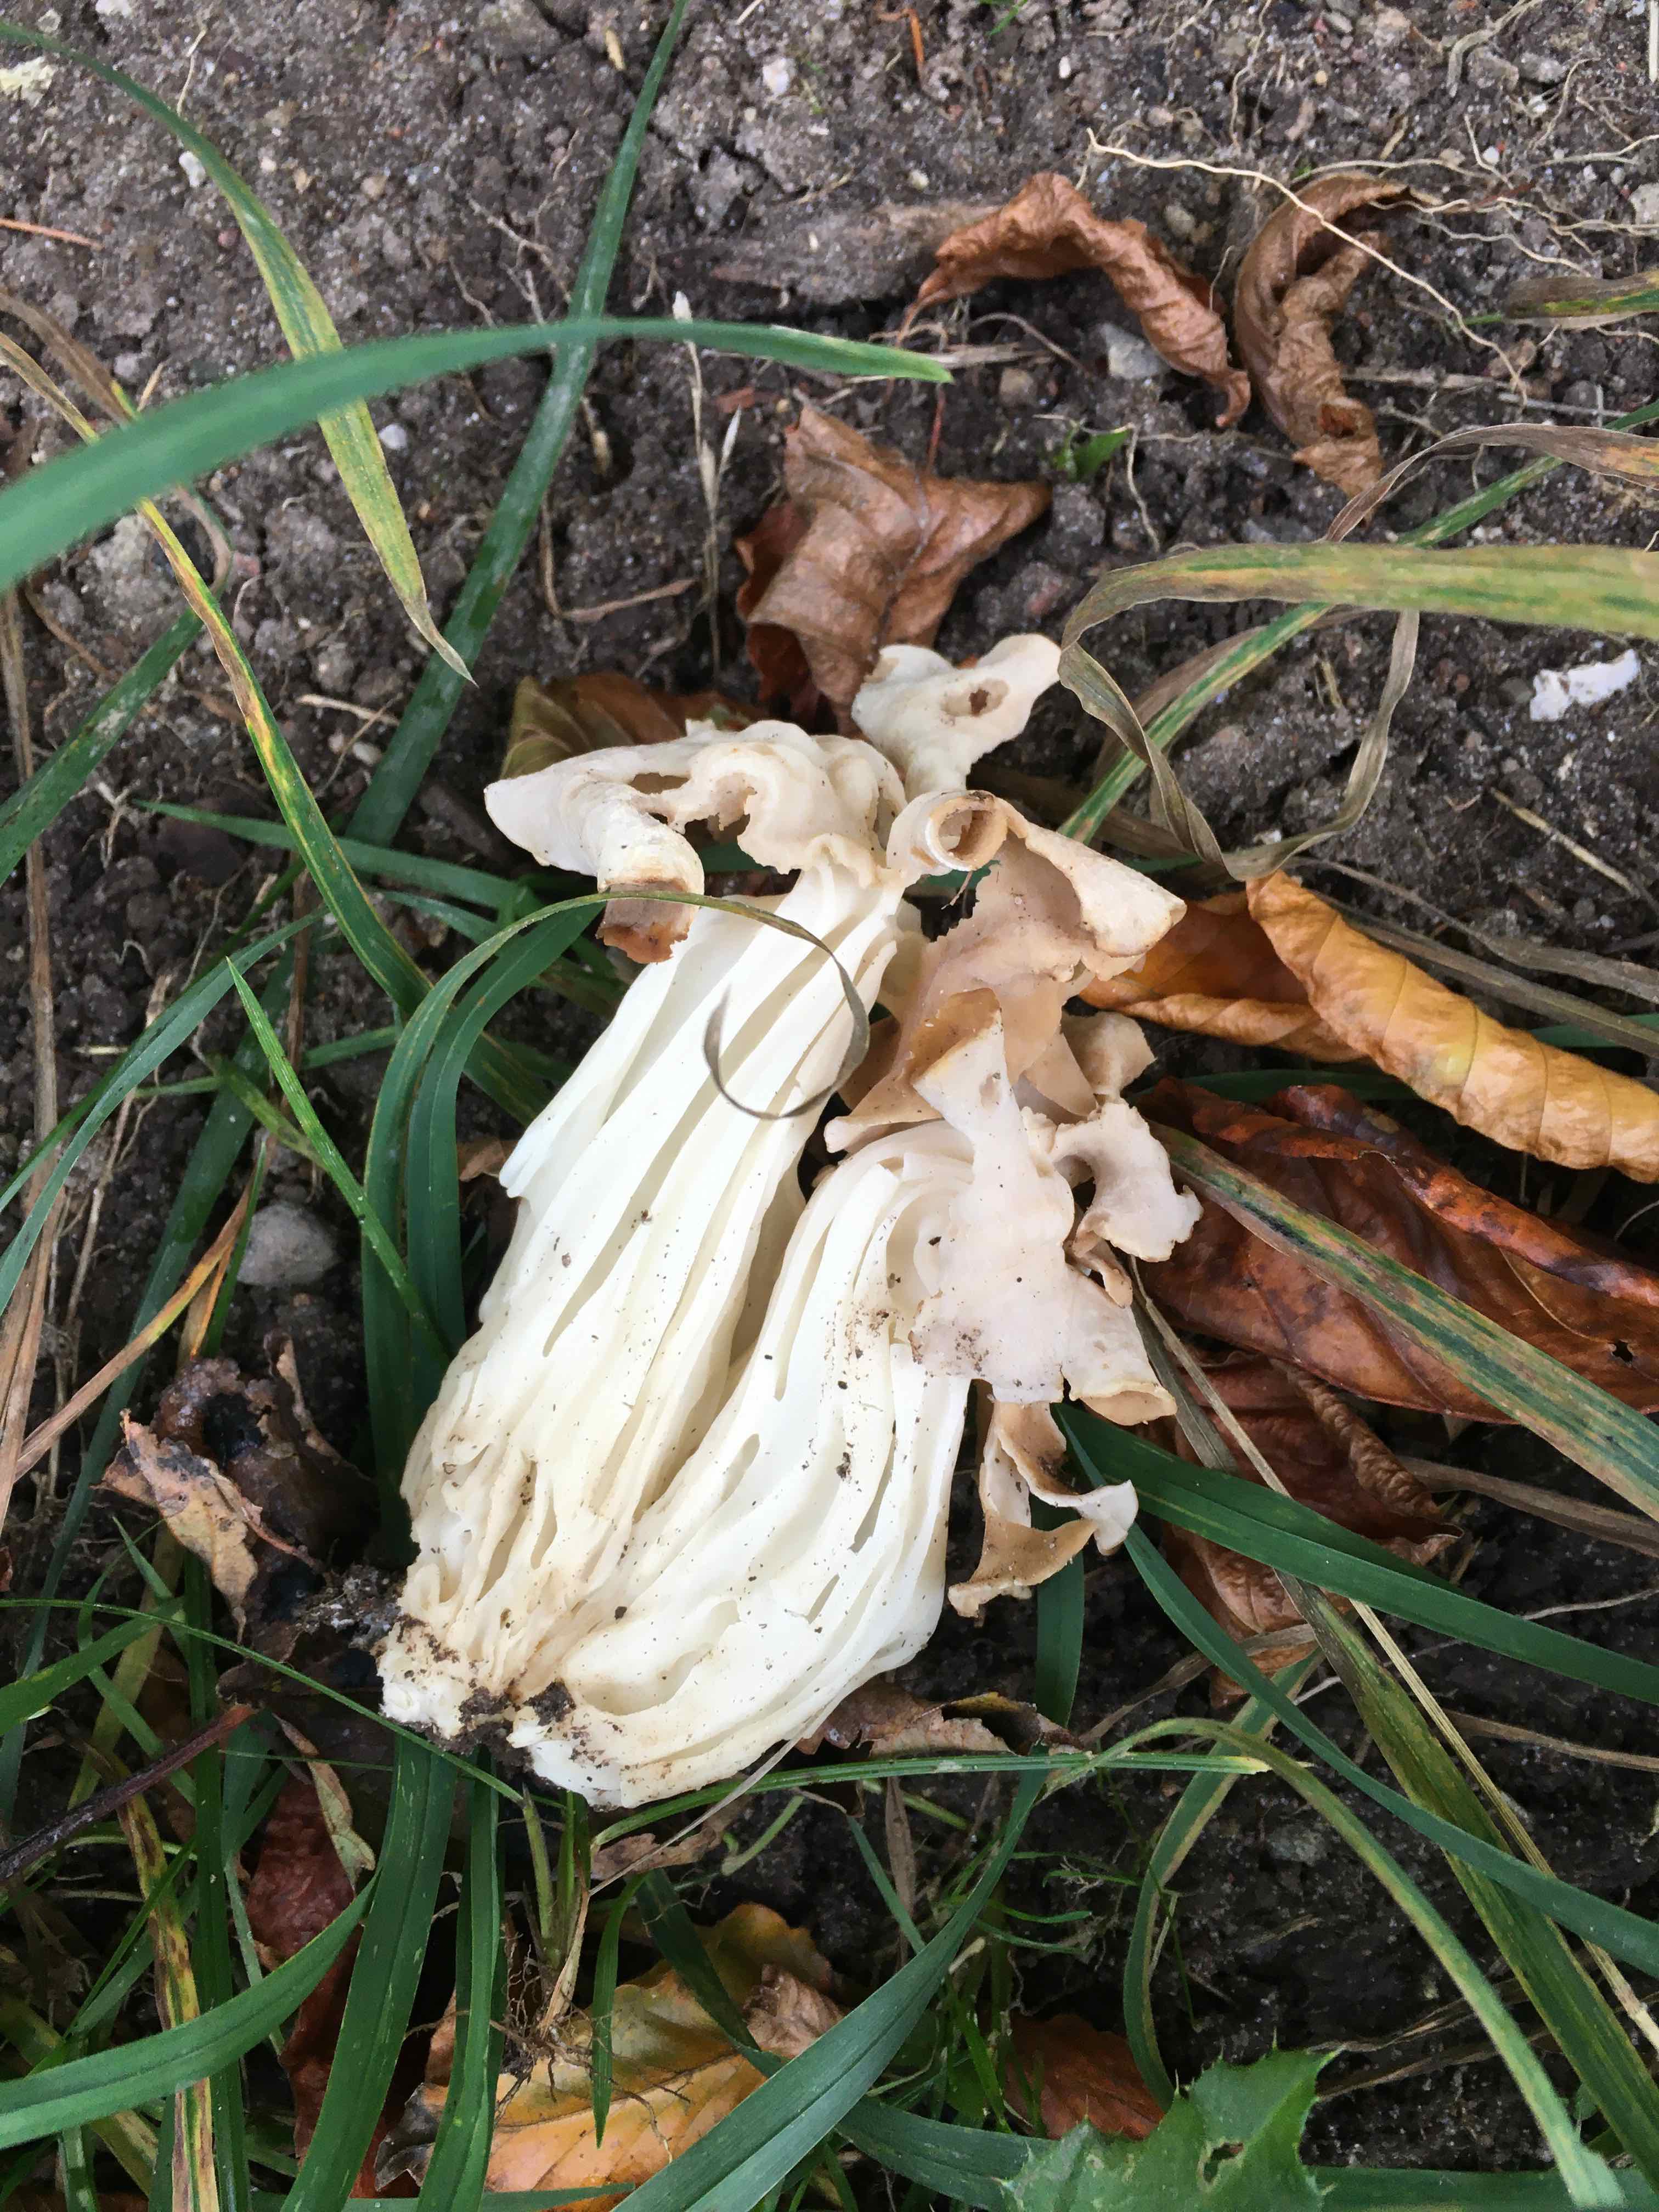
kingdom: Fungi
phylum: Ascomycota
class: Pezizomycetes
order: Pezizales
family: Helvellaceae
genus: Helvella
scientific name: Helvella crispa
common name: kruset foldhat
